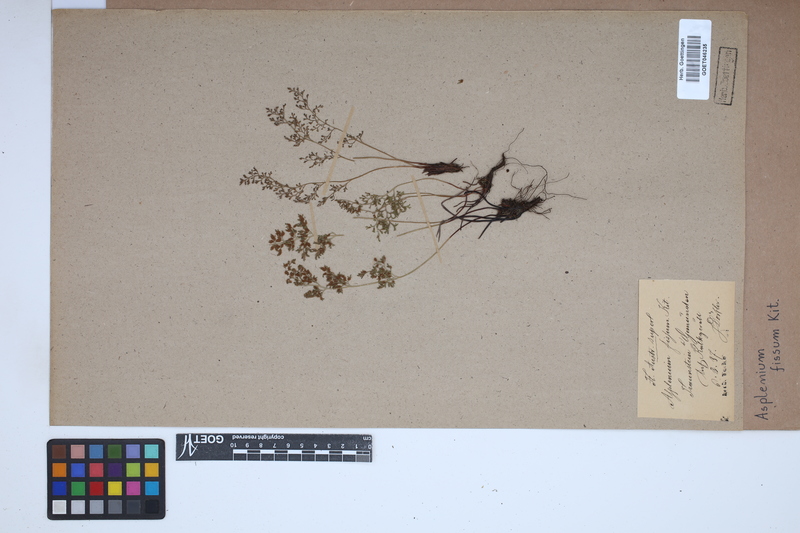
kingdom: Plantae
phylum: Tracheophyta
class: Polypodiopsida
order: Polypodiales
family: Aspleniaceae
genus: Asplenium
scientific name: Asplenium fissum
